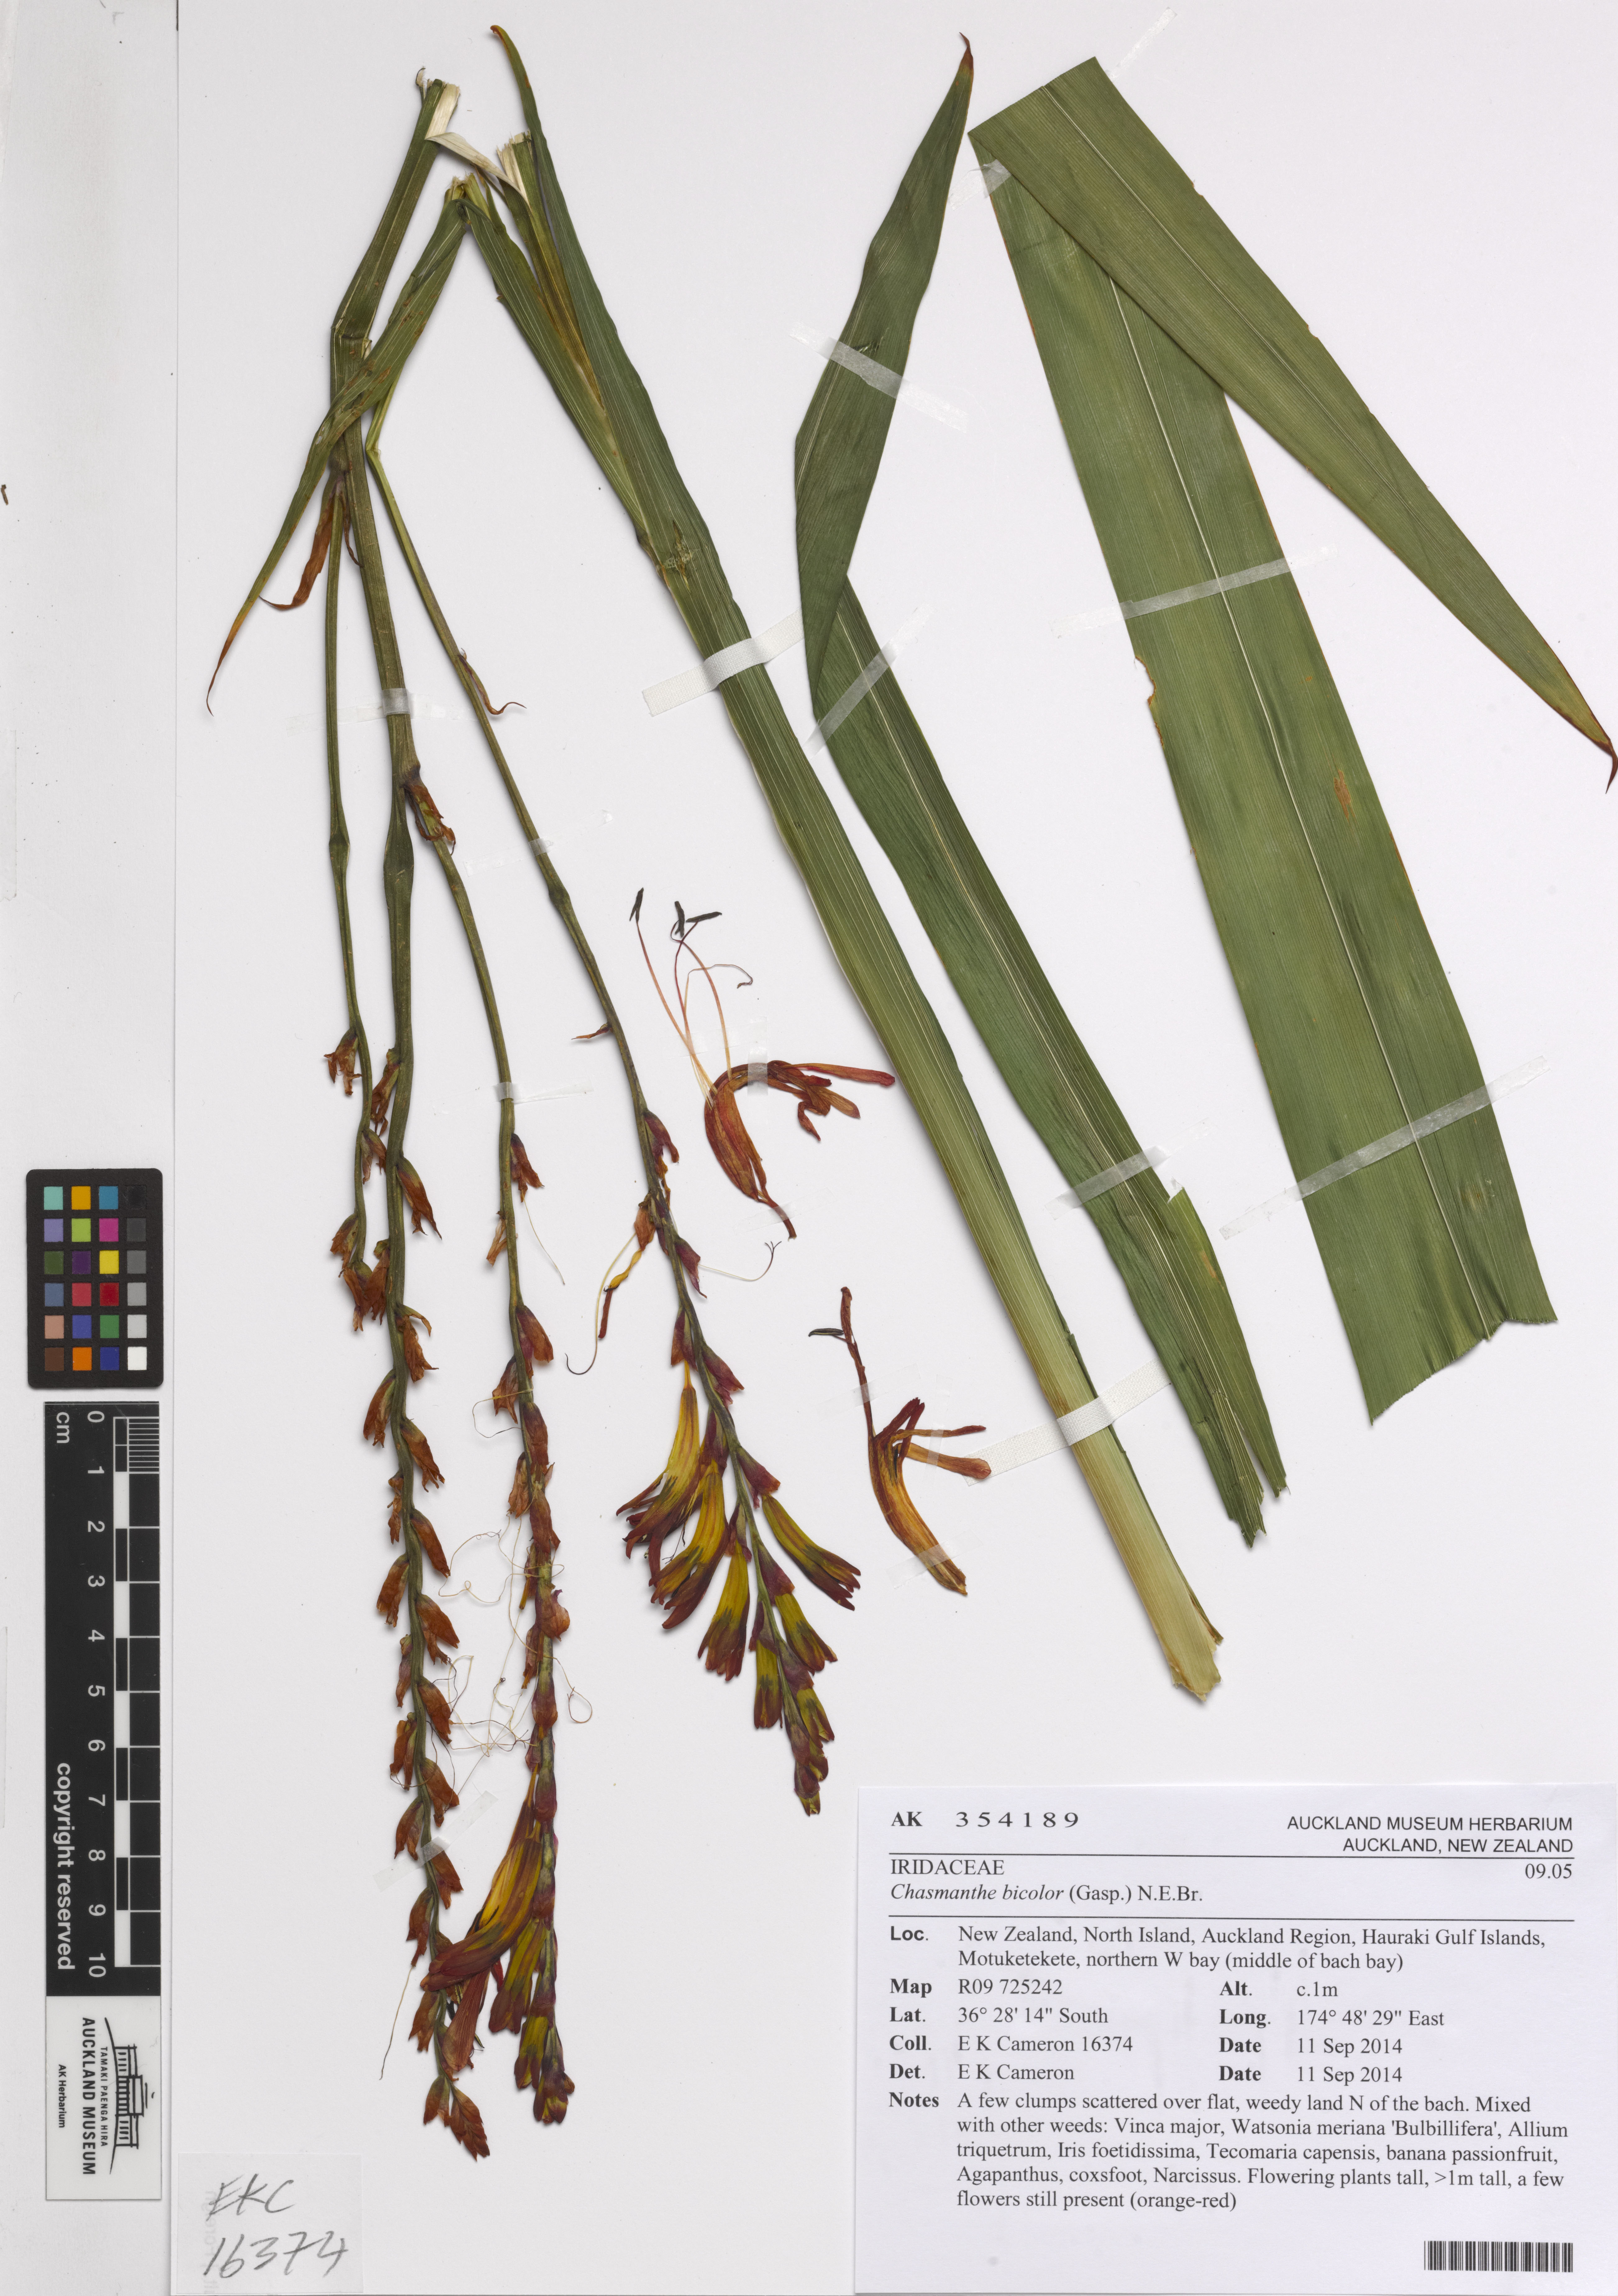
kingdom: Plantae
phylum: Tracheophyta
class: Liliopsida
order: Asparagales
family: Iridaceae
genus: Chasmanthe
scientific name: Chasmanthe bicolor
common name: Bicolor cobra lily
